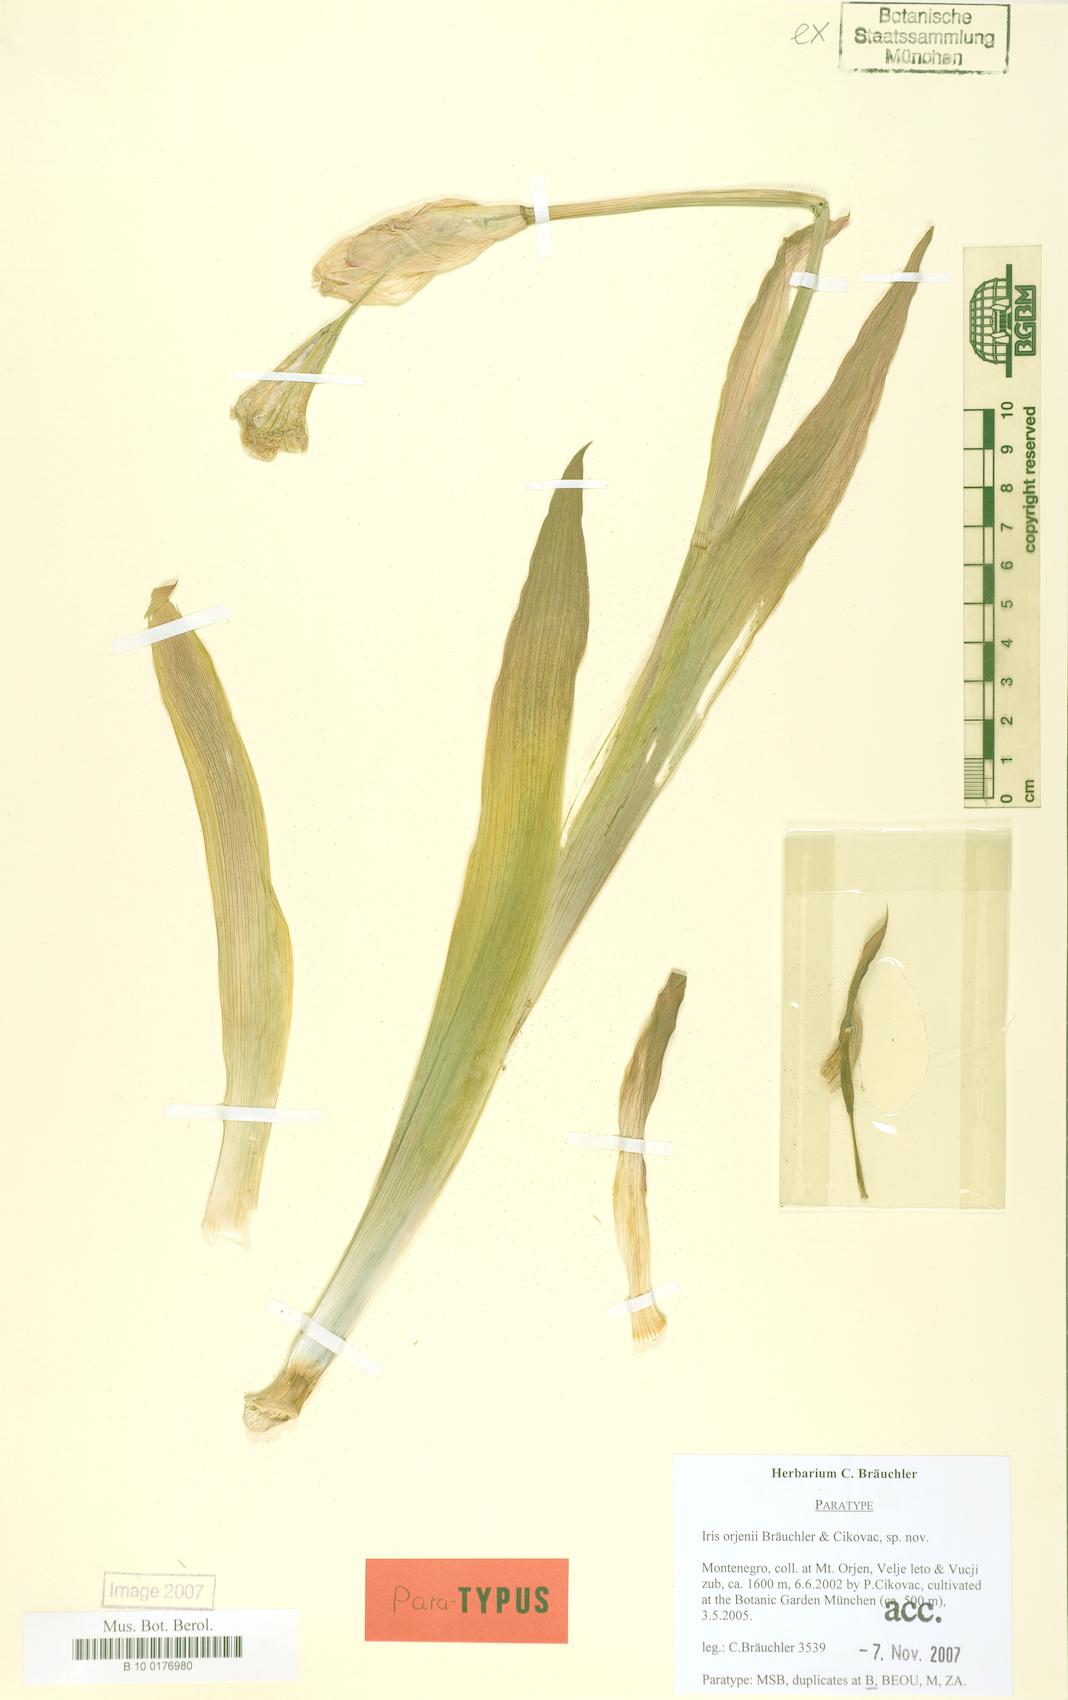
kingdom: Plantae
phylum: Tracheophyta
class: Liliopsida
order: Asparagales
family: Iridaceae
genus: Iris
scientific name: Iris orjenii
